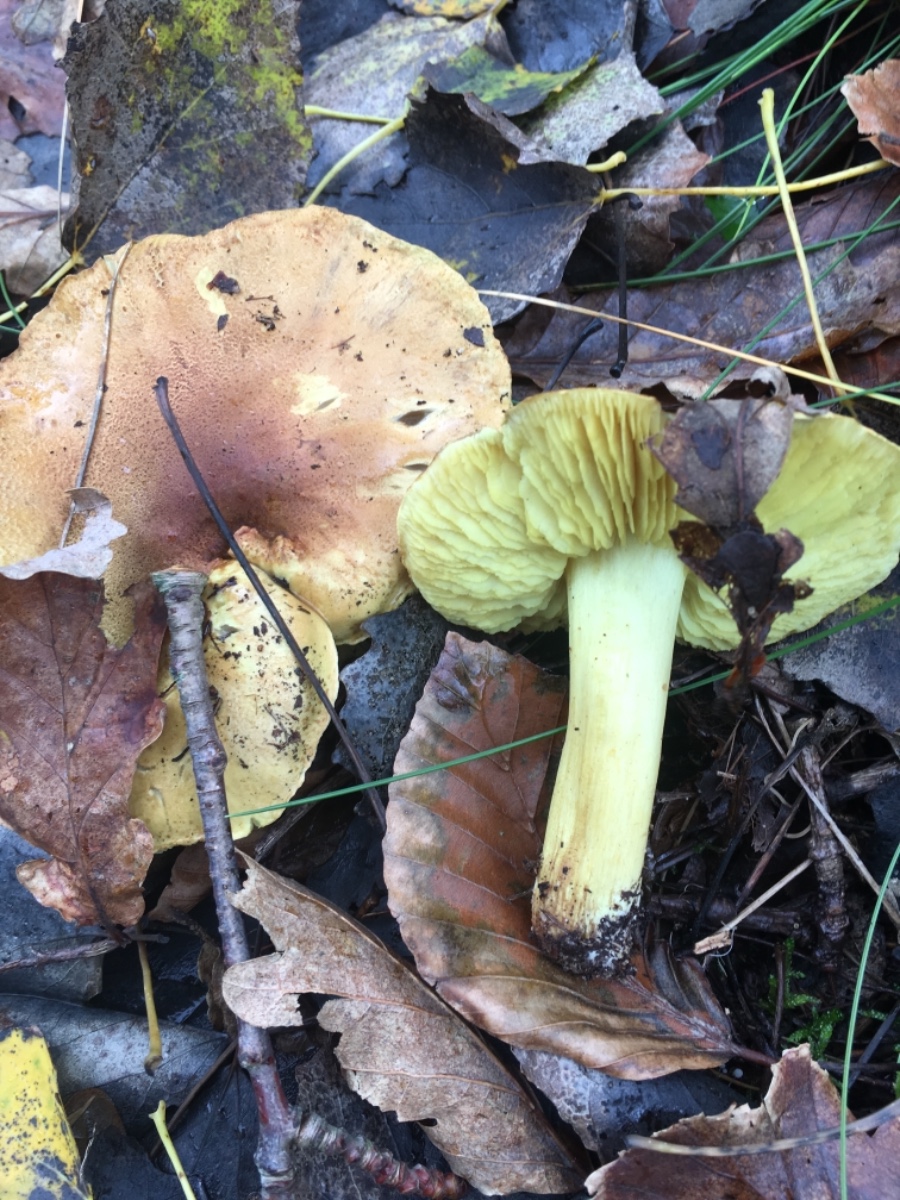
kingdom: Fungi
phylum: Basidiomycota
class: Agaricomycetes
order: Agaricales
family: Tricholomataceae
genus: Tricholoma
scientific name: Tricholoma equestre
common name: ægte ridderhat
